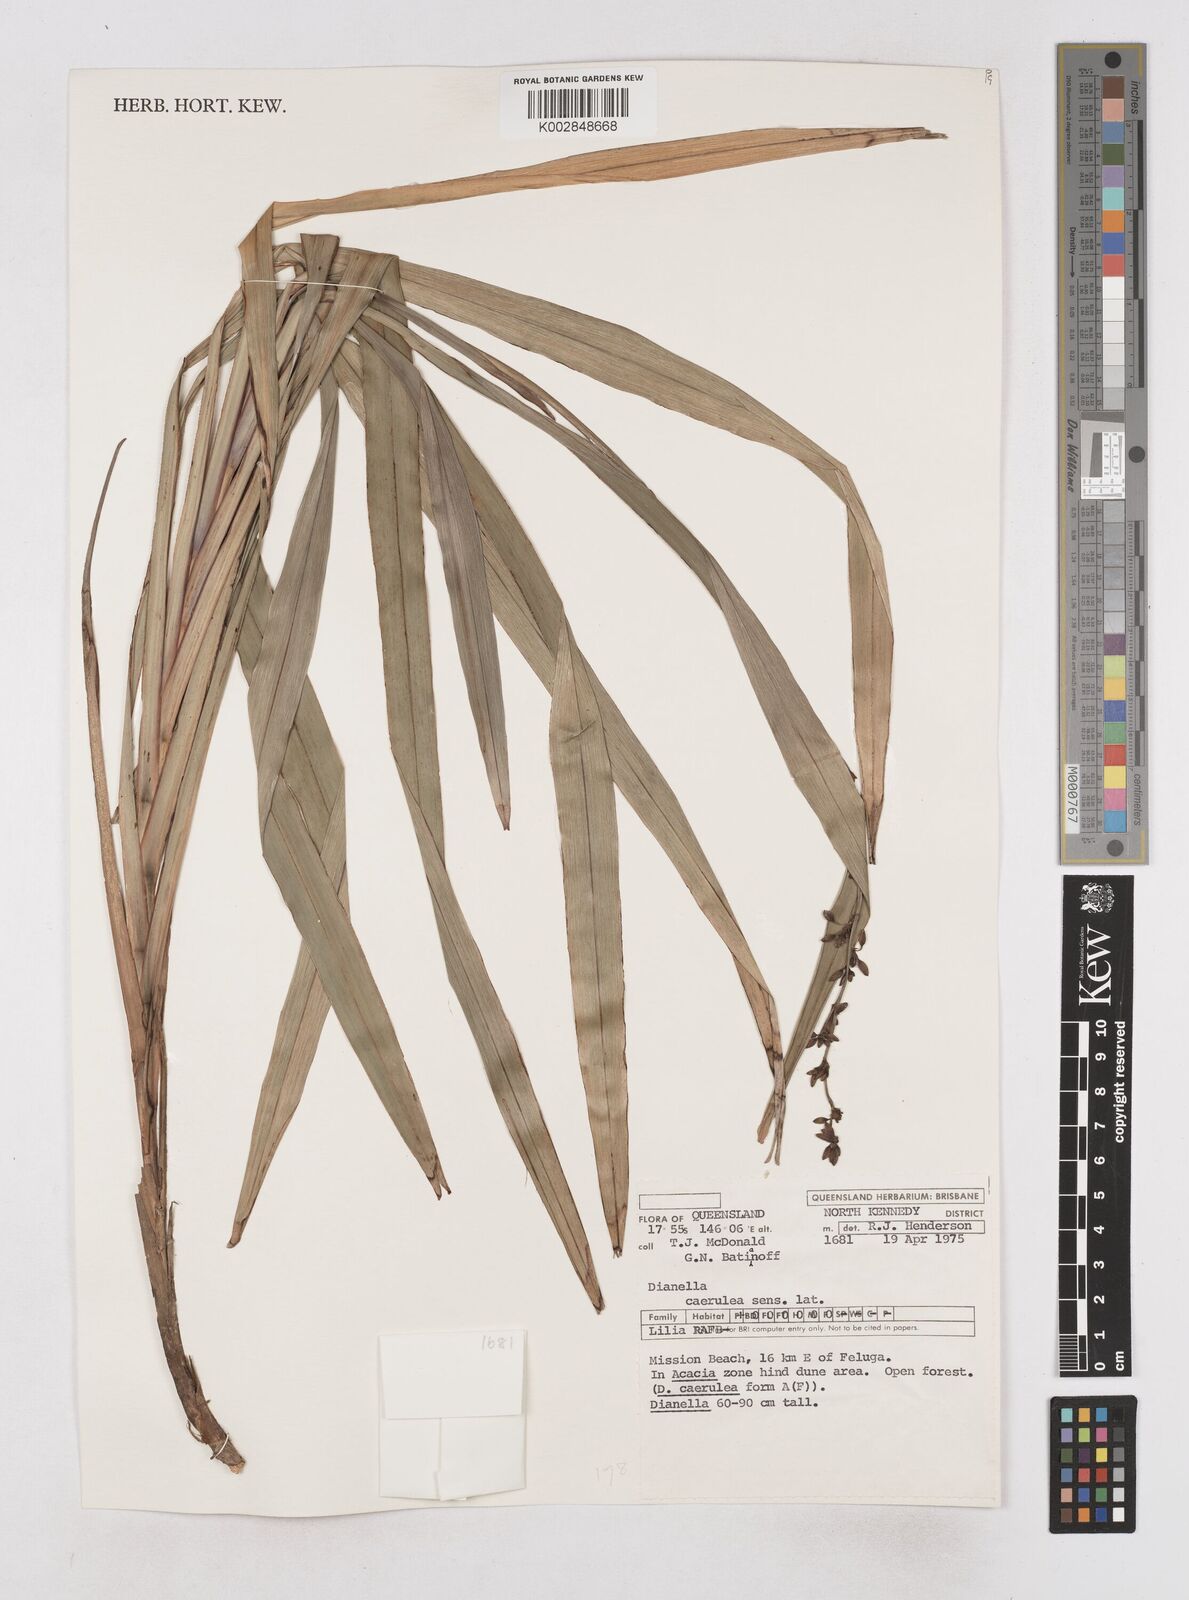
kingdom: Plantae
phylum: Tracheophyta
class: Liliopsida
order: Asparagales
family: Asphodelaceae
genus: Dianella
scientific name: Dianella caerulea
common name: Blue flax-lily
